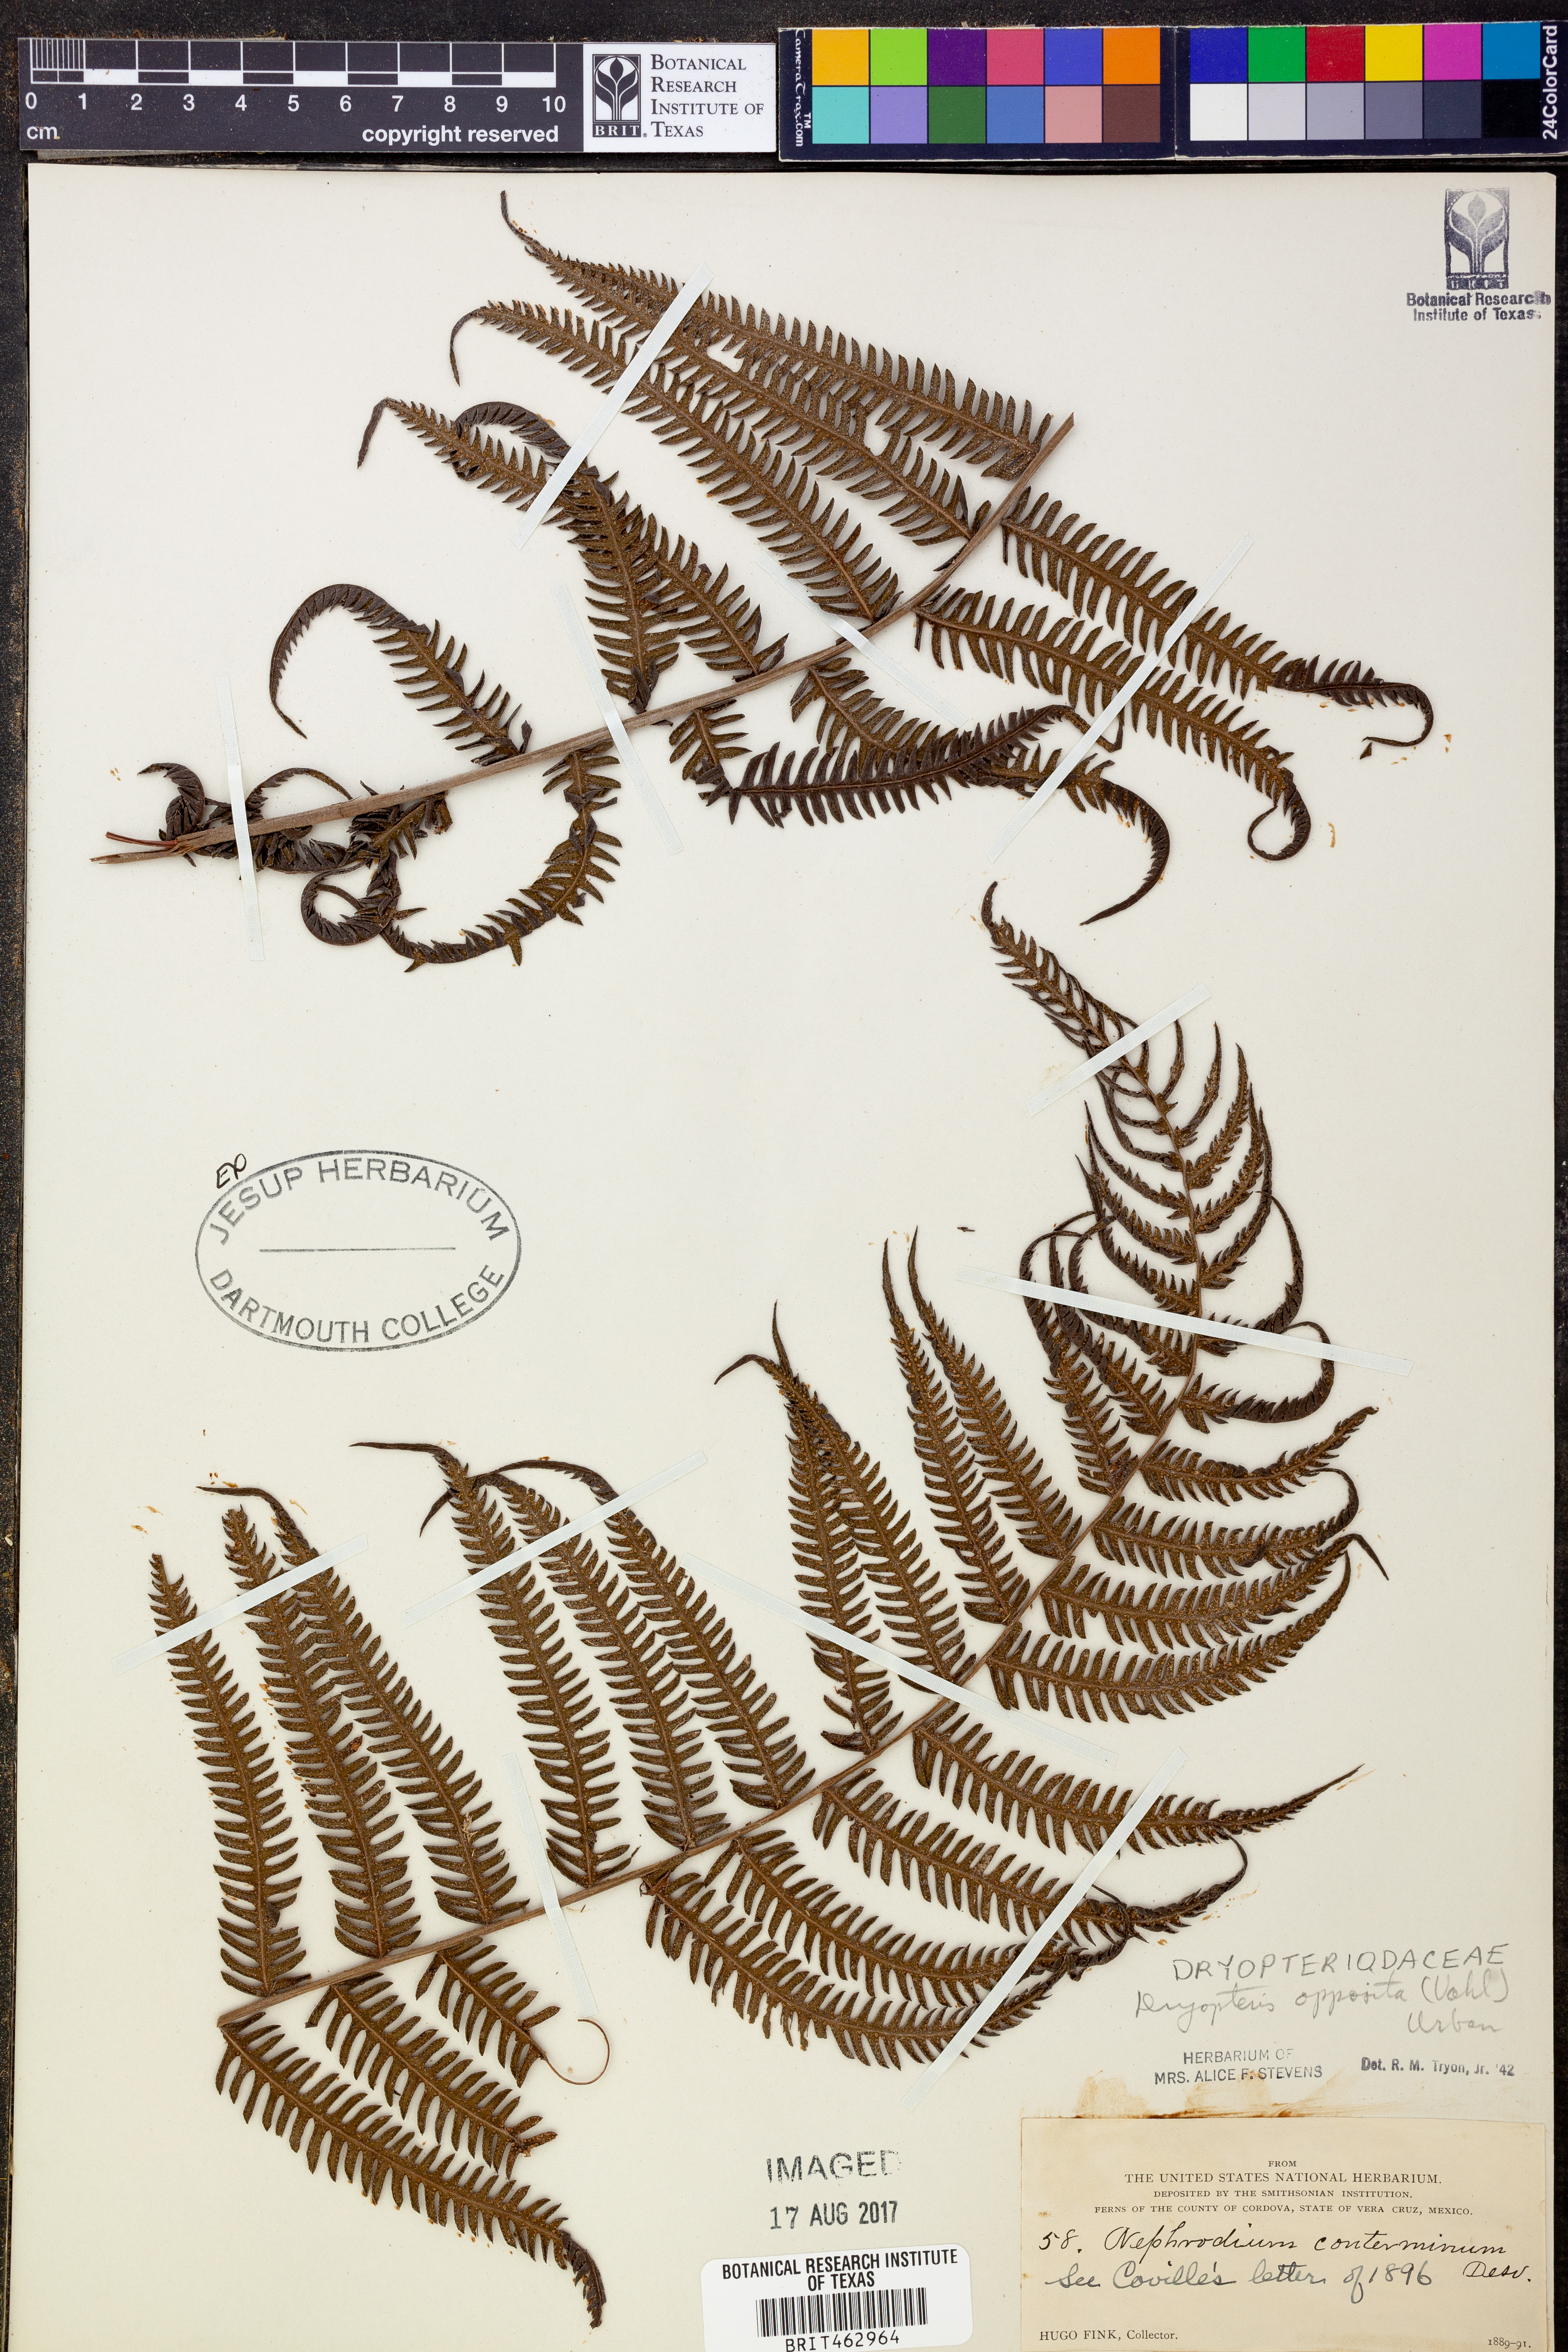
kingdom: Plantae
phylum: Tracheophyta
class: Polypodiopsida
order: Polypodiales
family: Thelypteridaceae
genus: Amauropelta
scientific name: Amauropelta opposita
